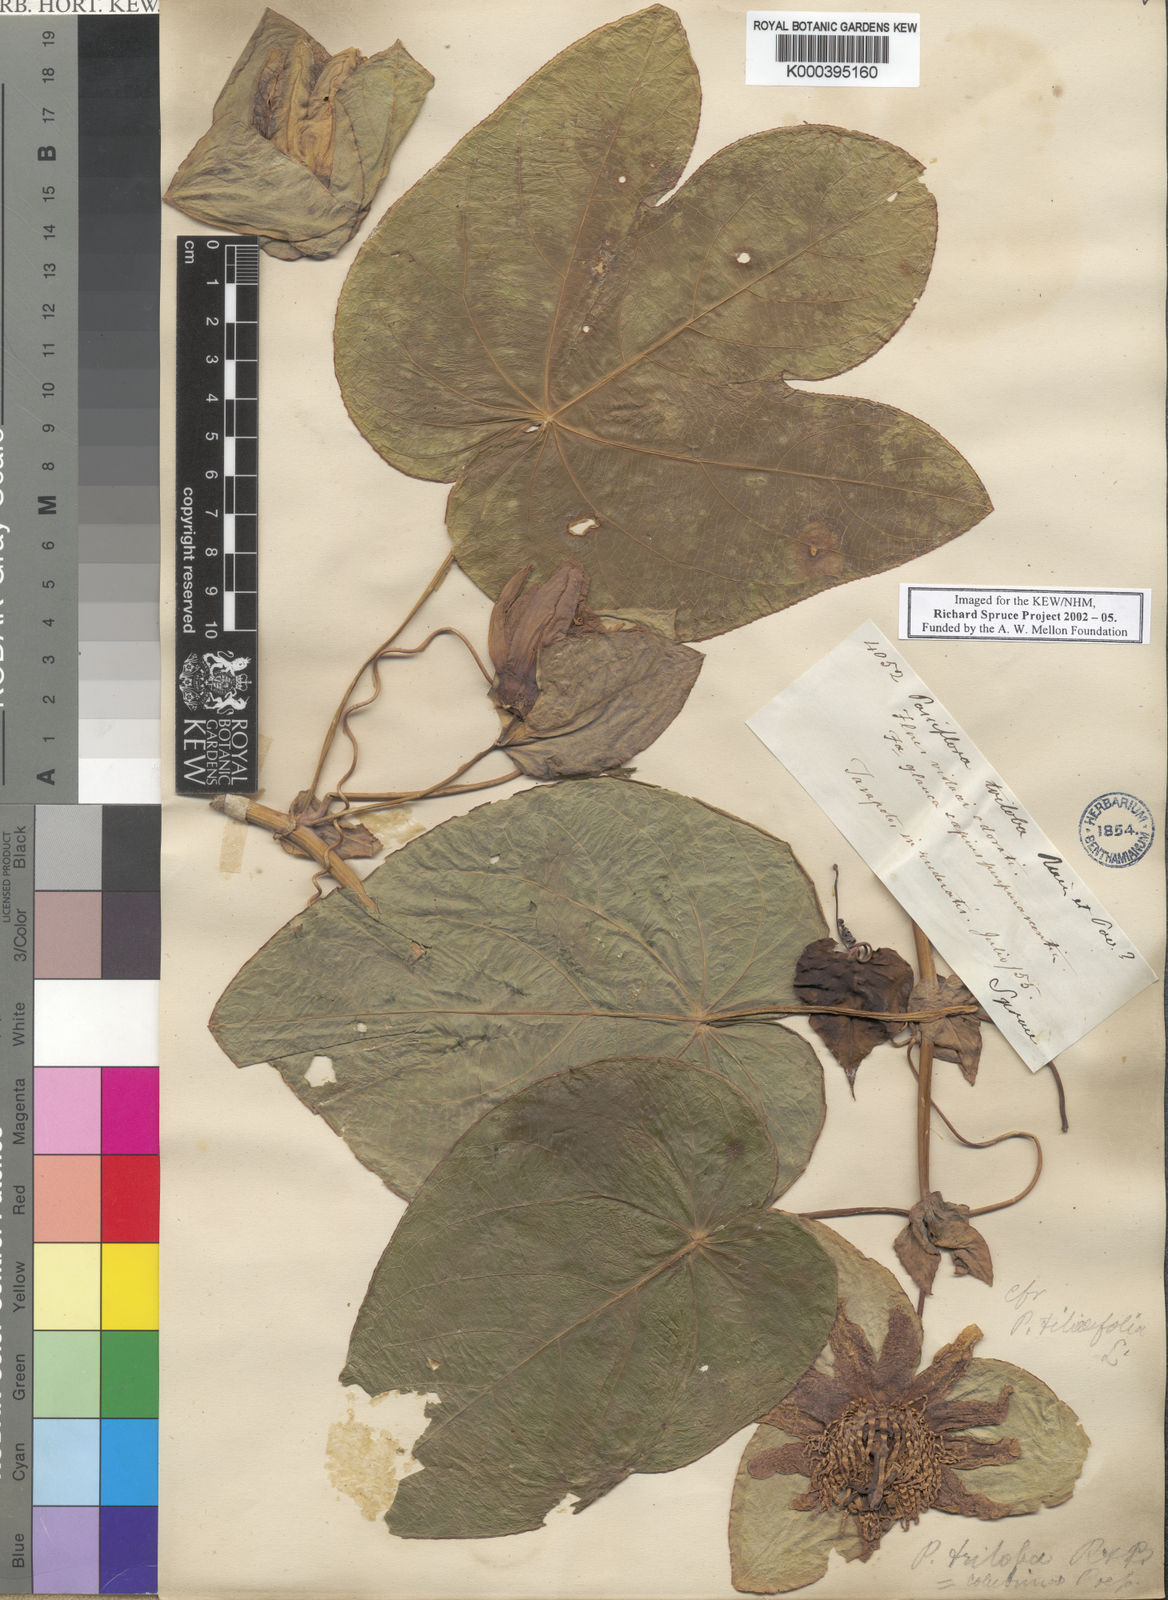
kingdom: Plantae
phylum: Tracheophyta
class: Magnoliopsida
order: Malpighiales
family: Passifloraceae
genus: Passiflora
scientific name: Passiflora
